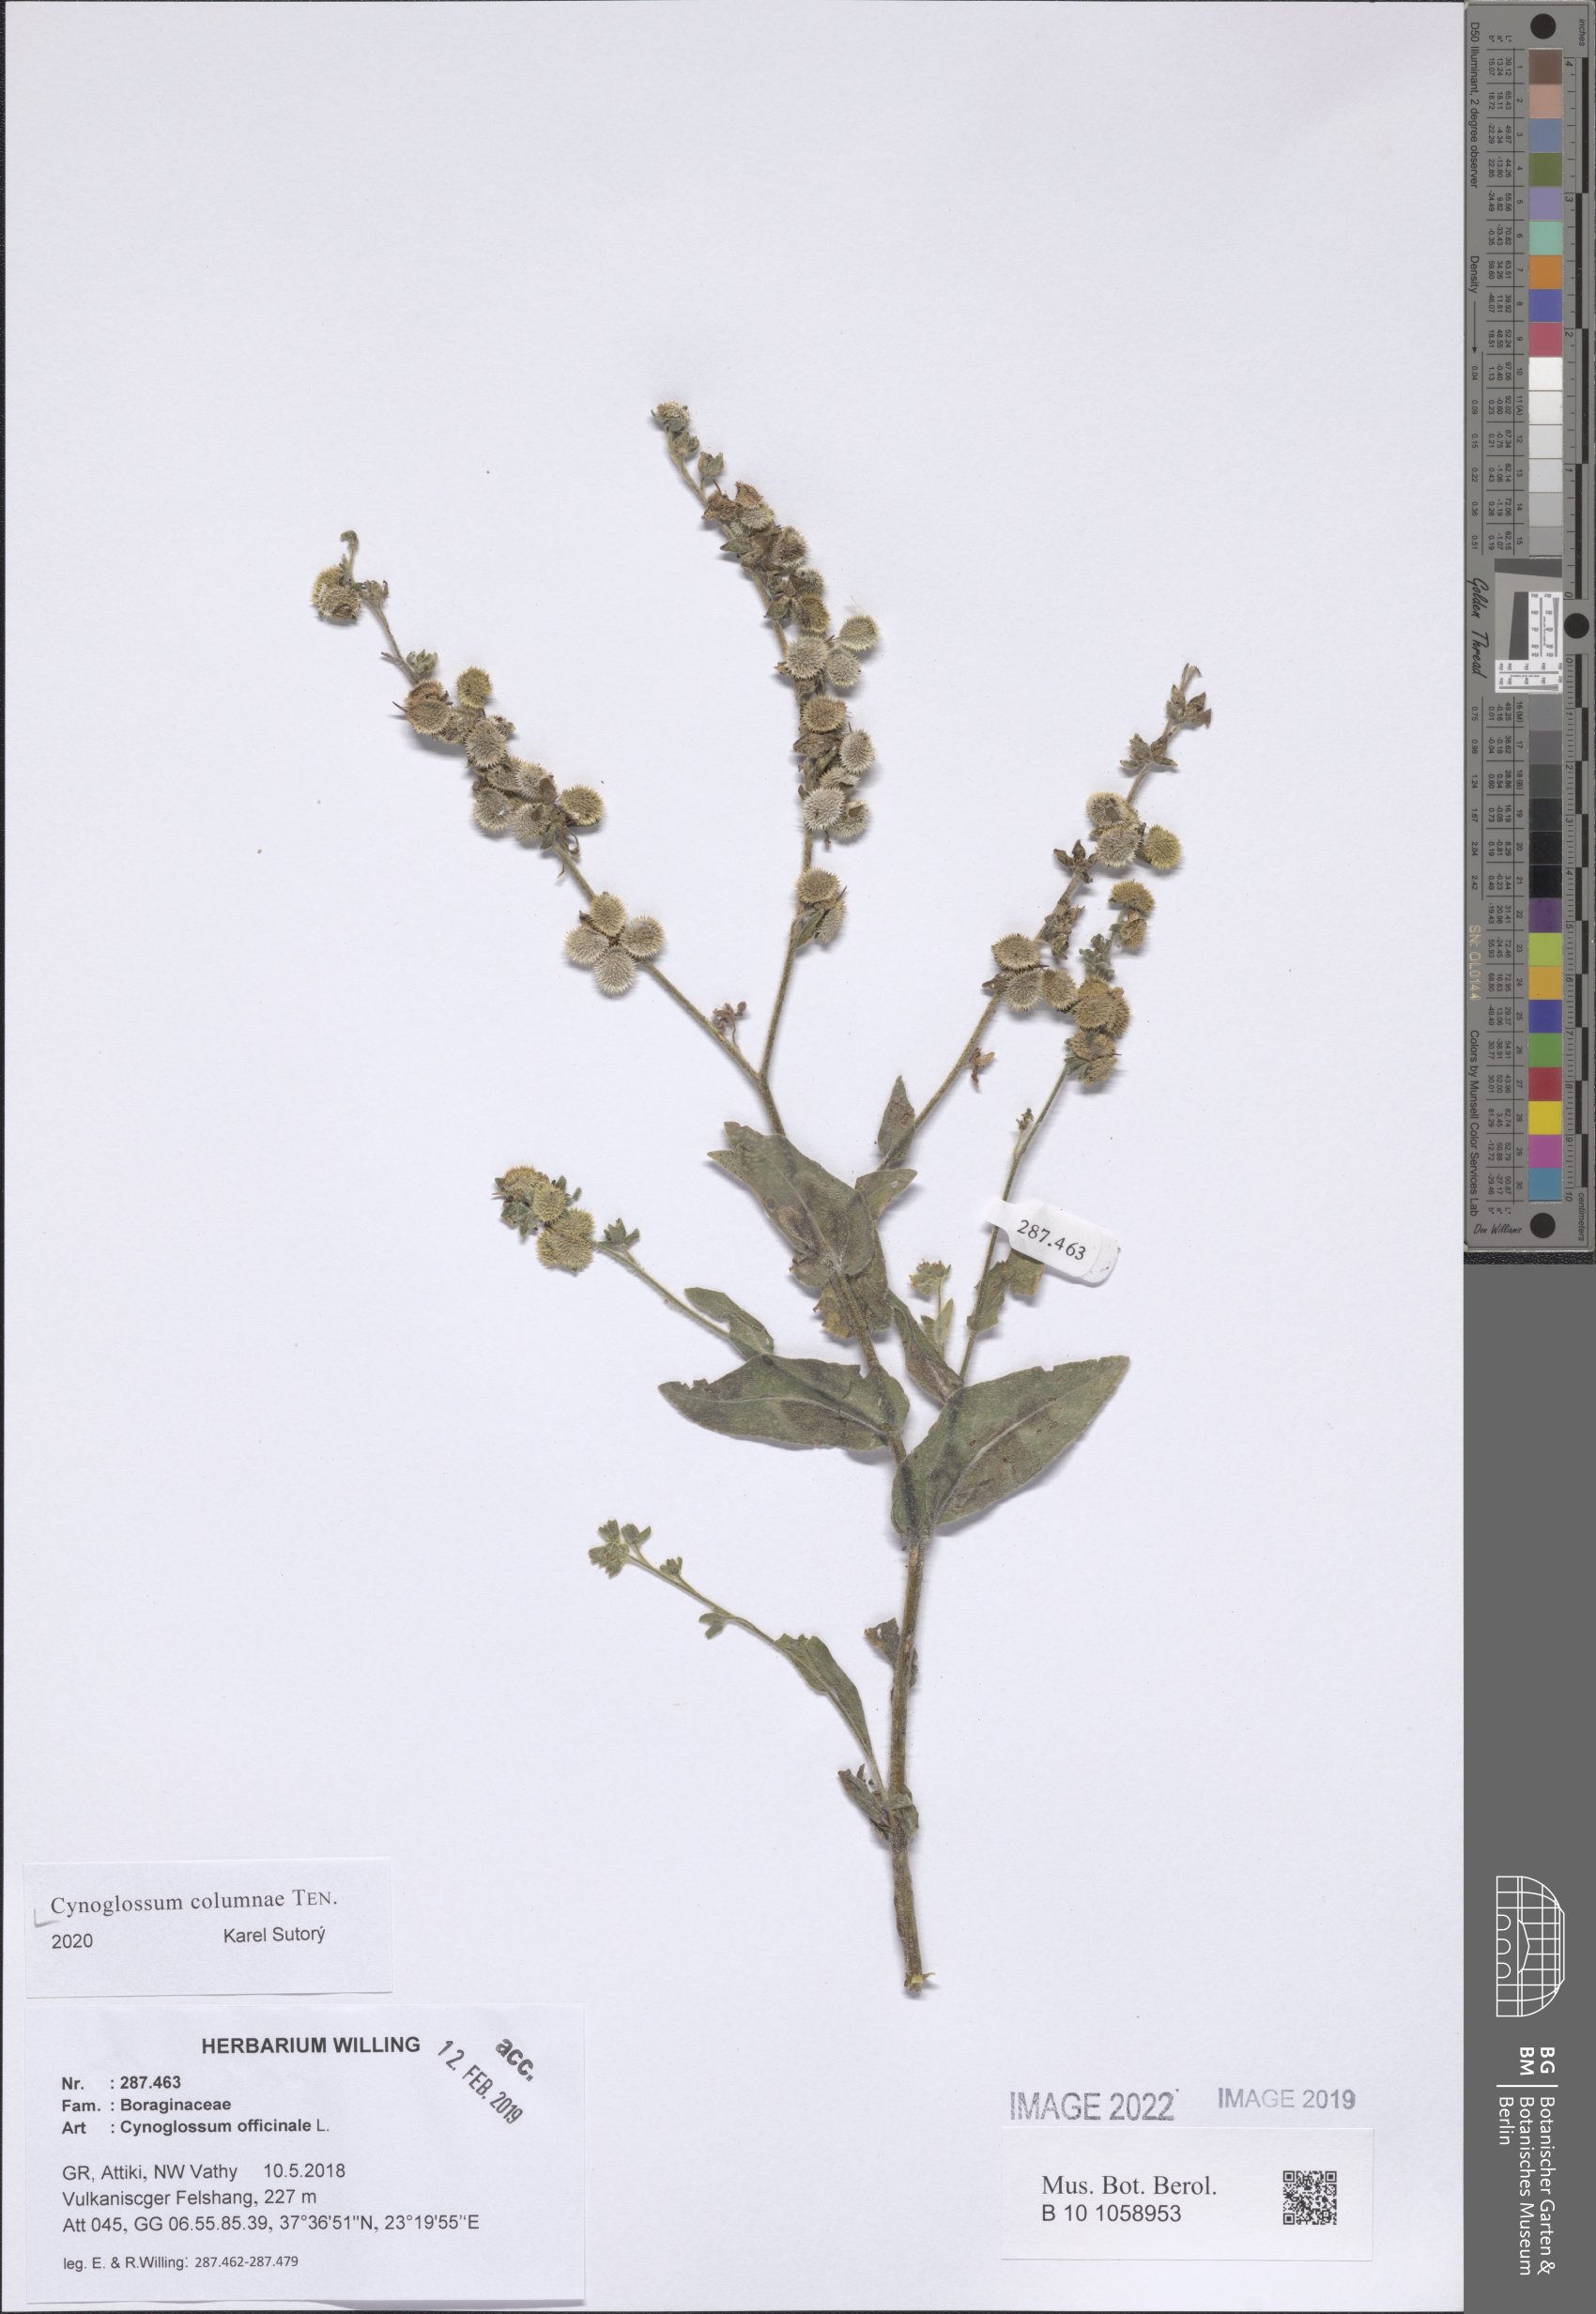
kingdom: Plantae
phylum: Tracheophyta
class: Magnoliopsida
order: Boraginales
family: Boraginaceae
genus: Rindera
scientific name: Rindera columnae
